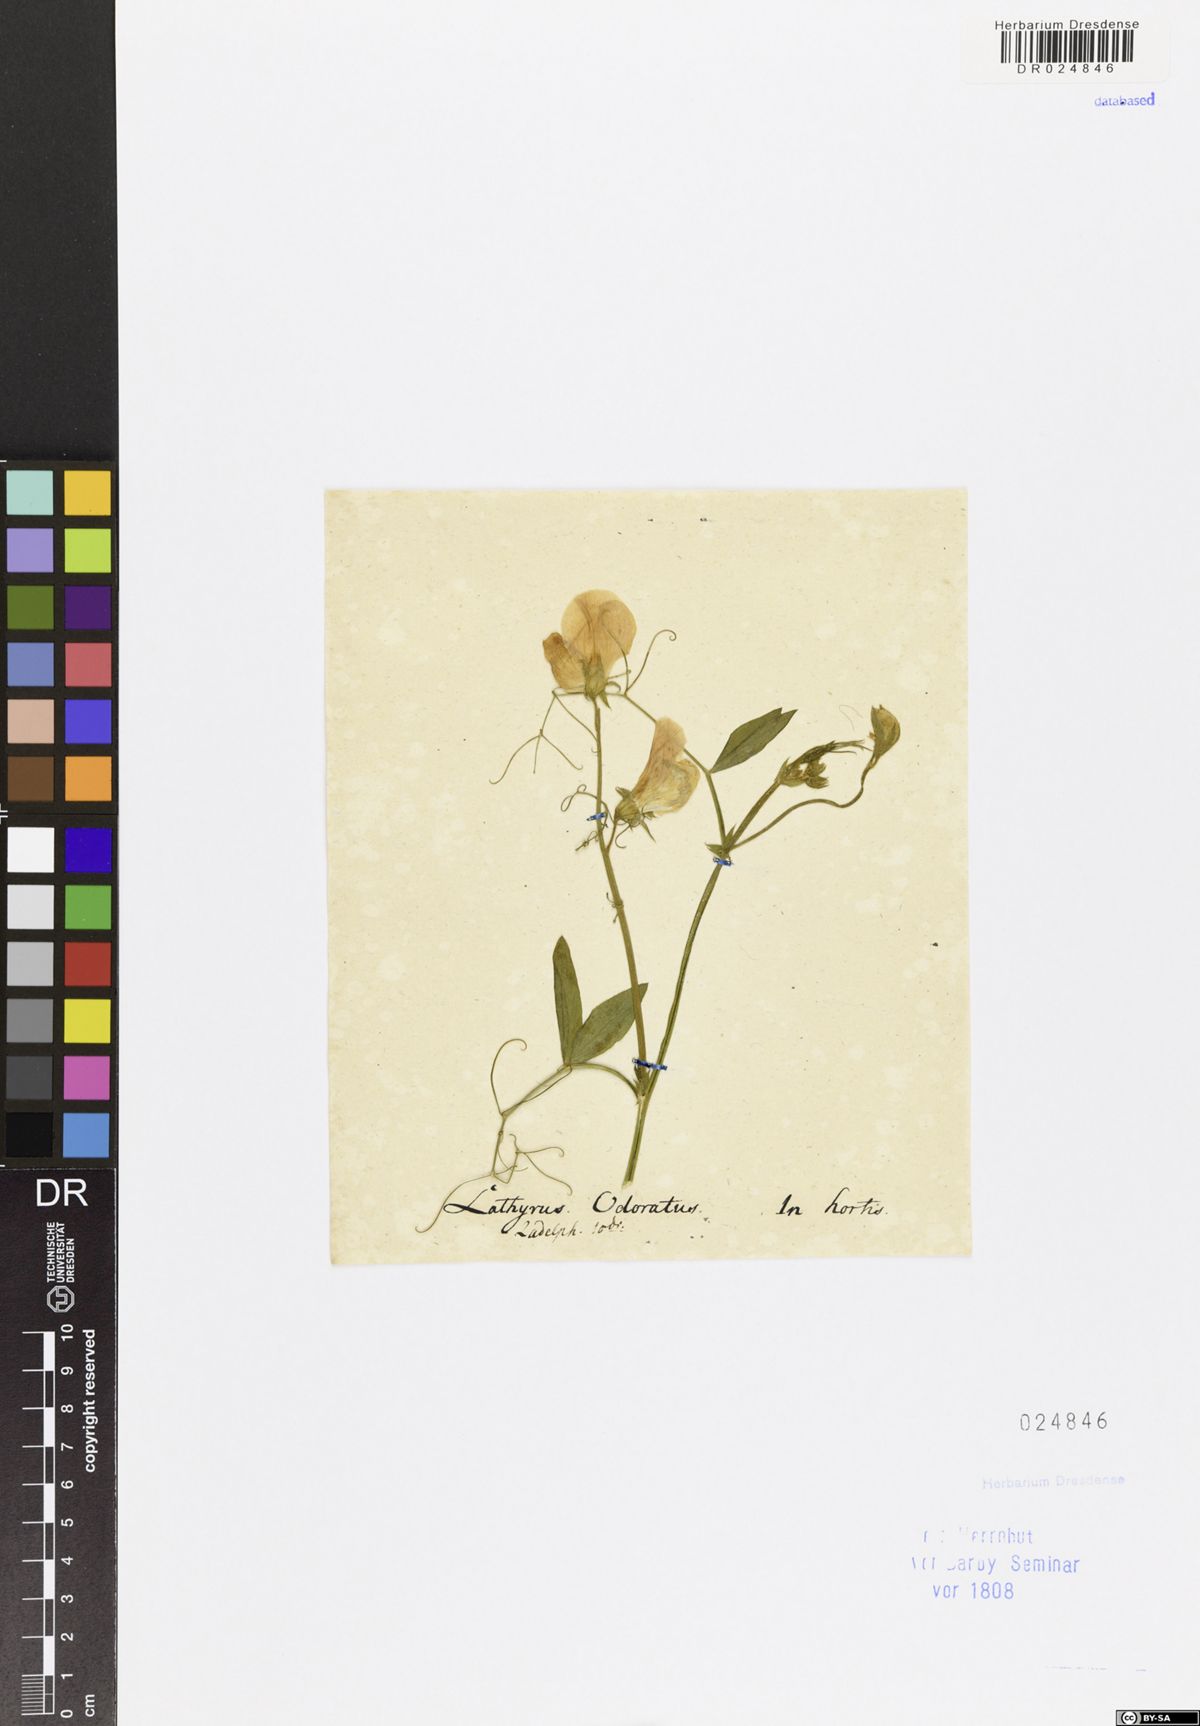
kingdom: Plantae
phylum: Tracheophyta
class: Magnoliopsida
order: Fabales
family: Fabaceae
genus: Lathyrus
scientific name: Lathyrus odoratus
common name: Sweet pea
